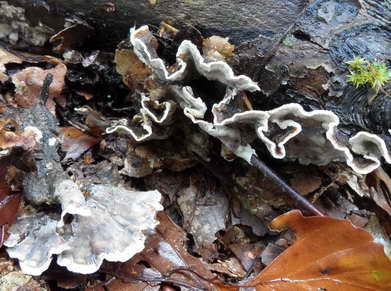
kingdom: Fungi
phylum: Basidiomycota
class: Agaricomycetes
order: Russulales
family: Hericiaceae
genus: Laxitextum
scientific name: Laxitextum bicolor
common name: tvefarvet filtskind
